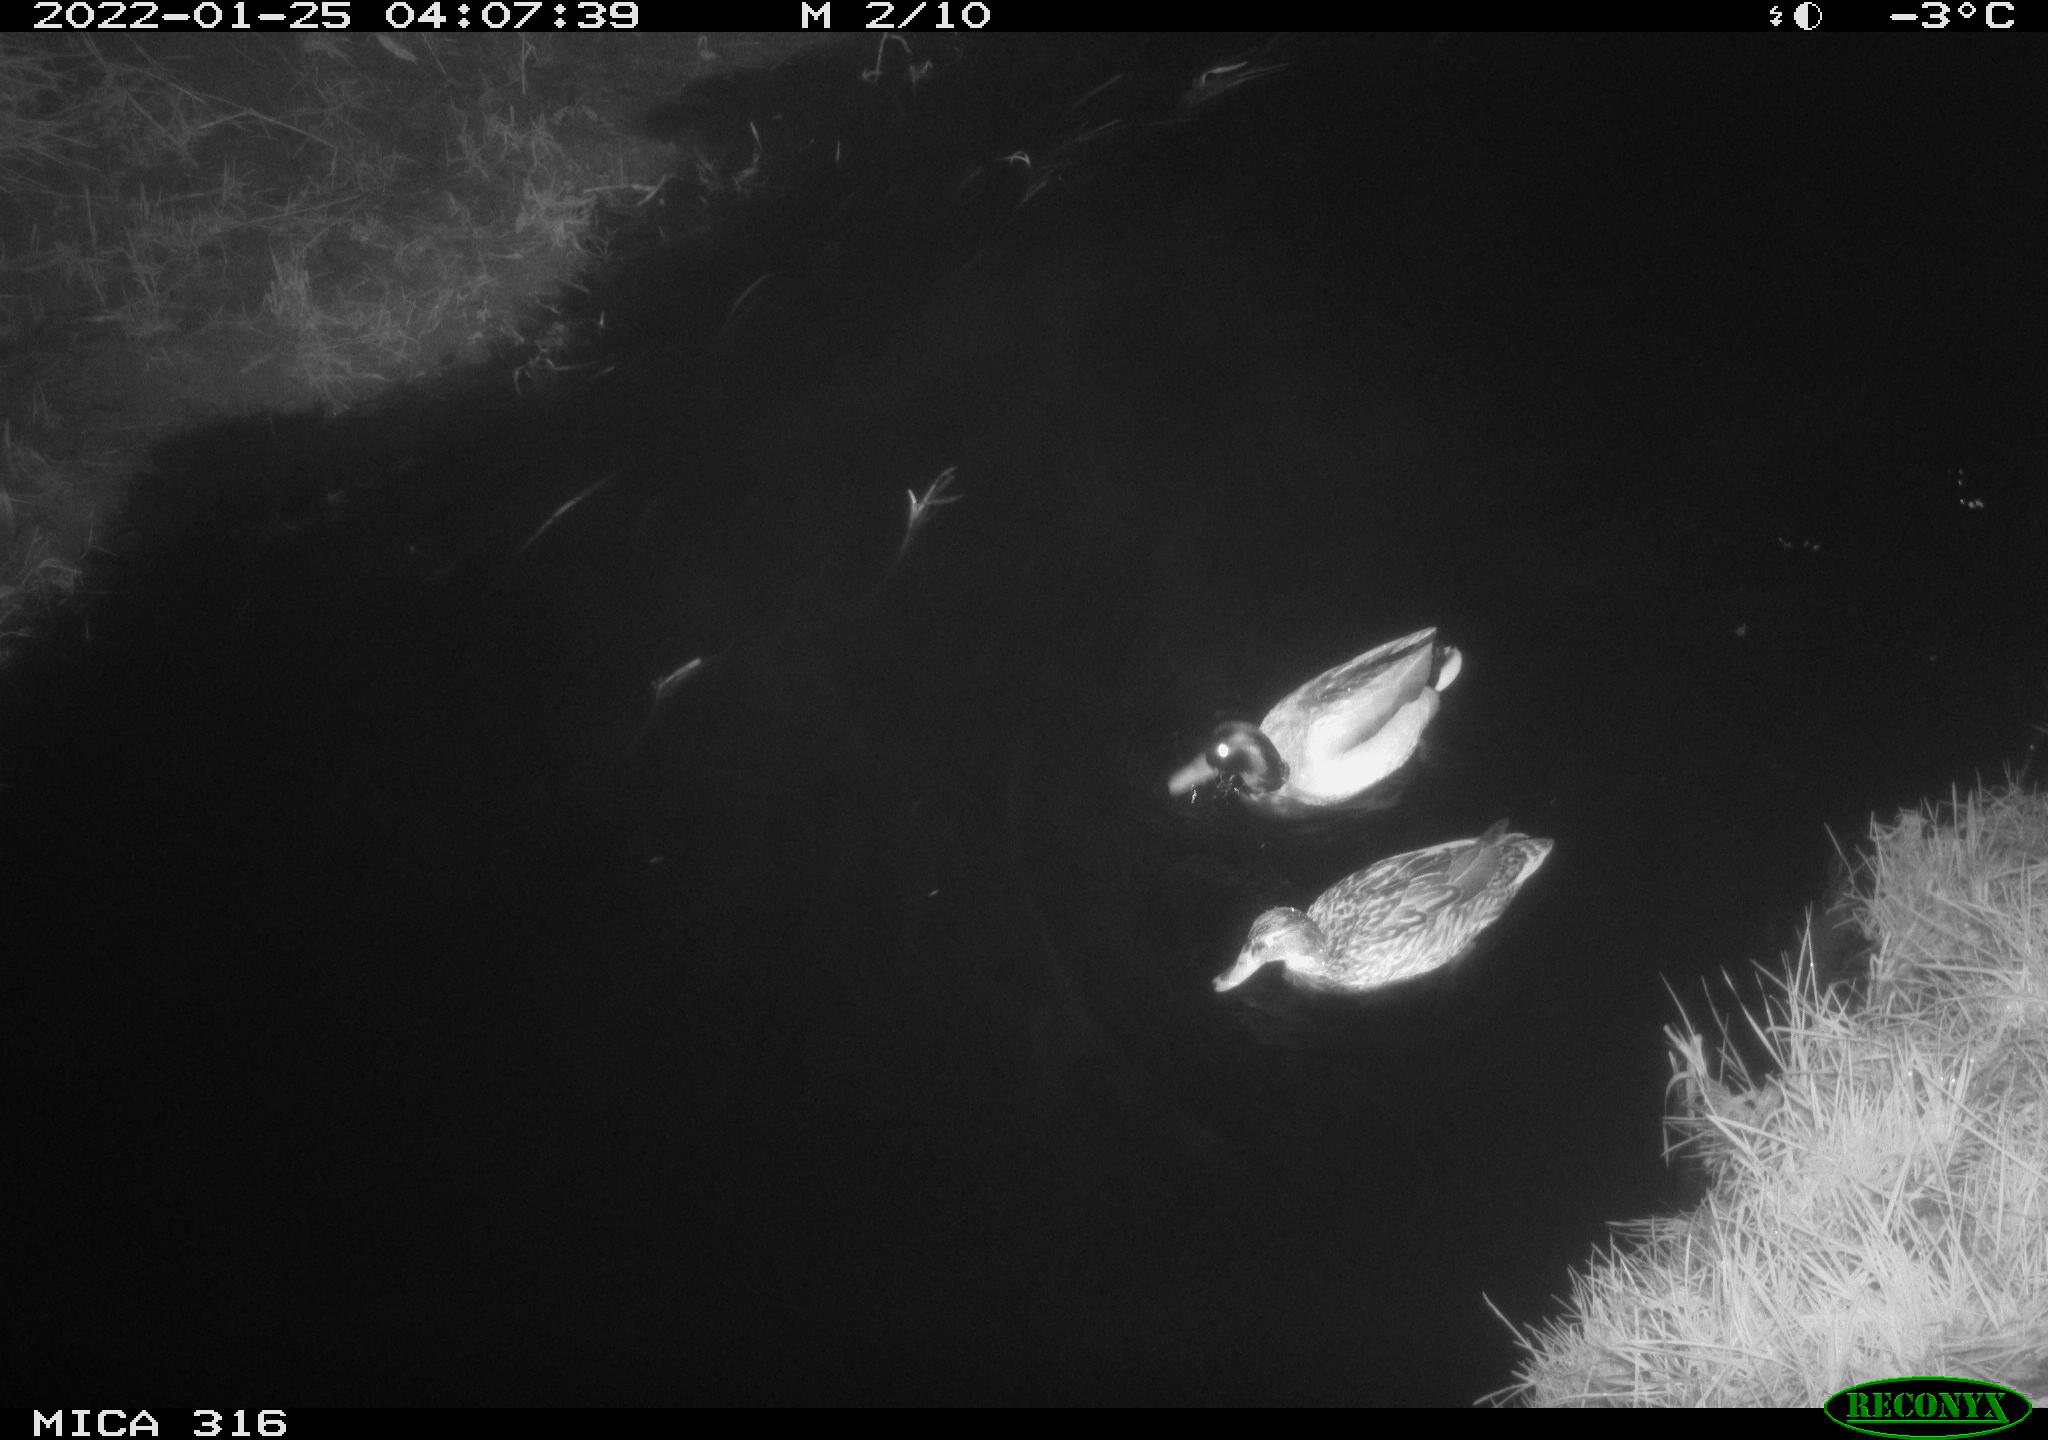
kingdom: Animalia
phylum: Chordata
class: Aves
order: Anseriformes
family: Anatidae
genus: Anas
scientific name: Anas platyrhynchos
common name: Mallard
